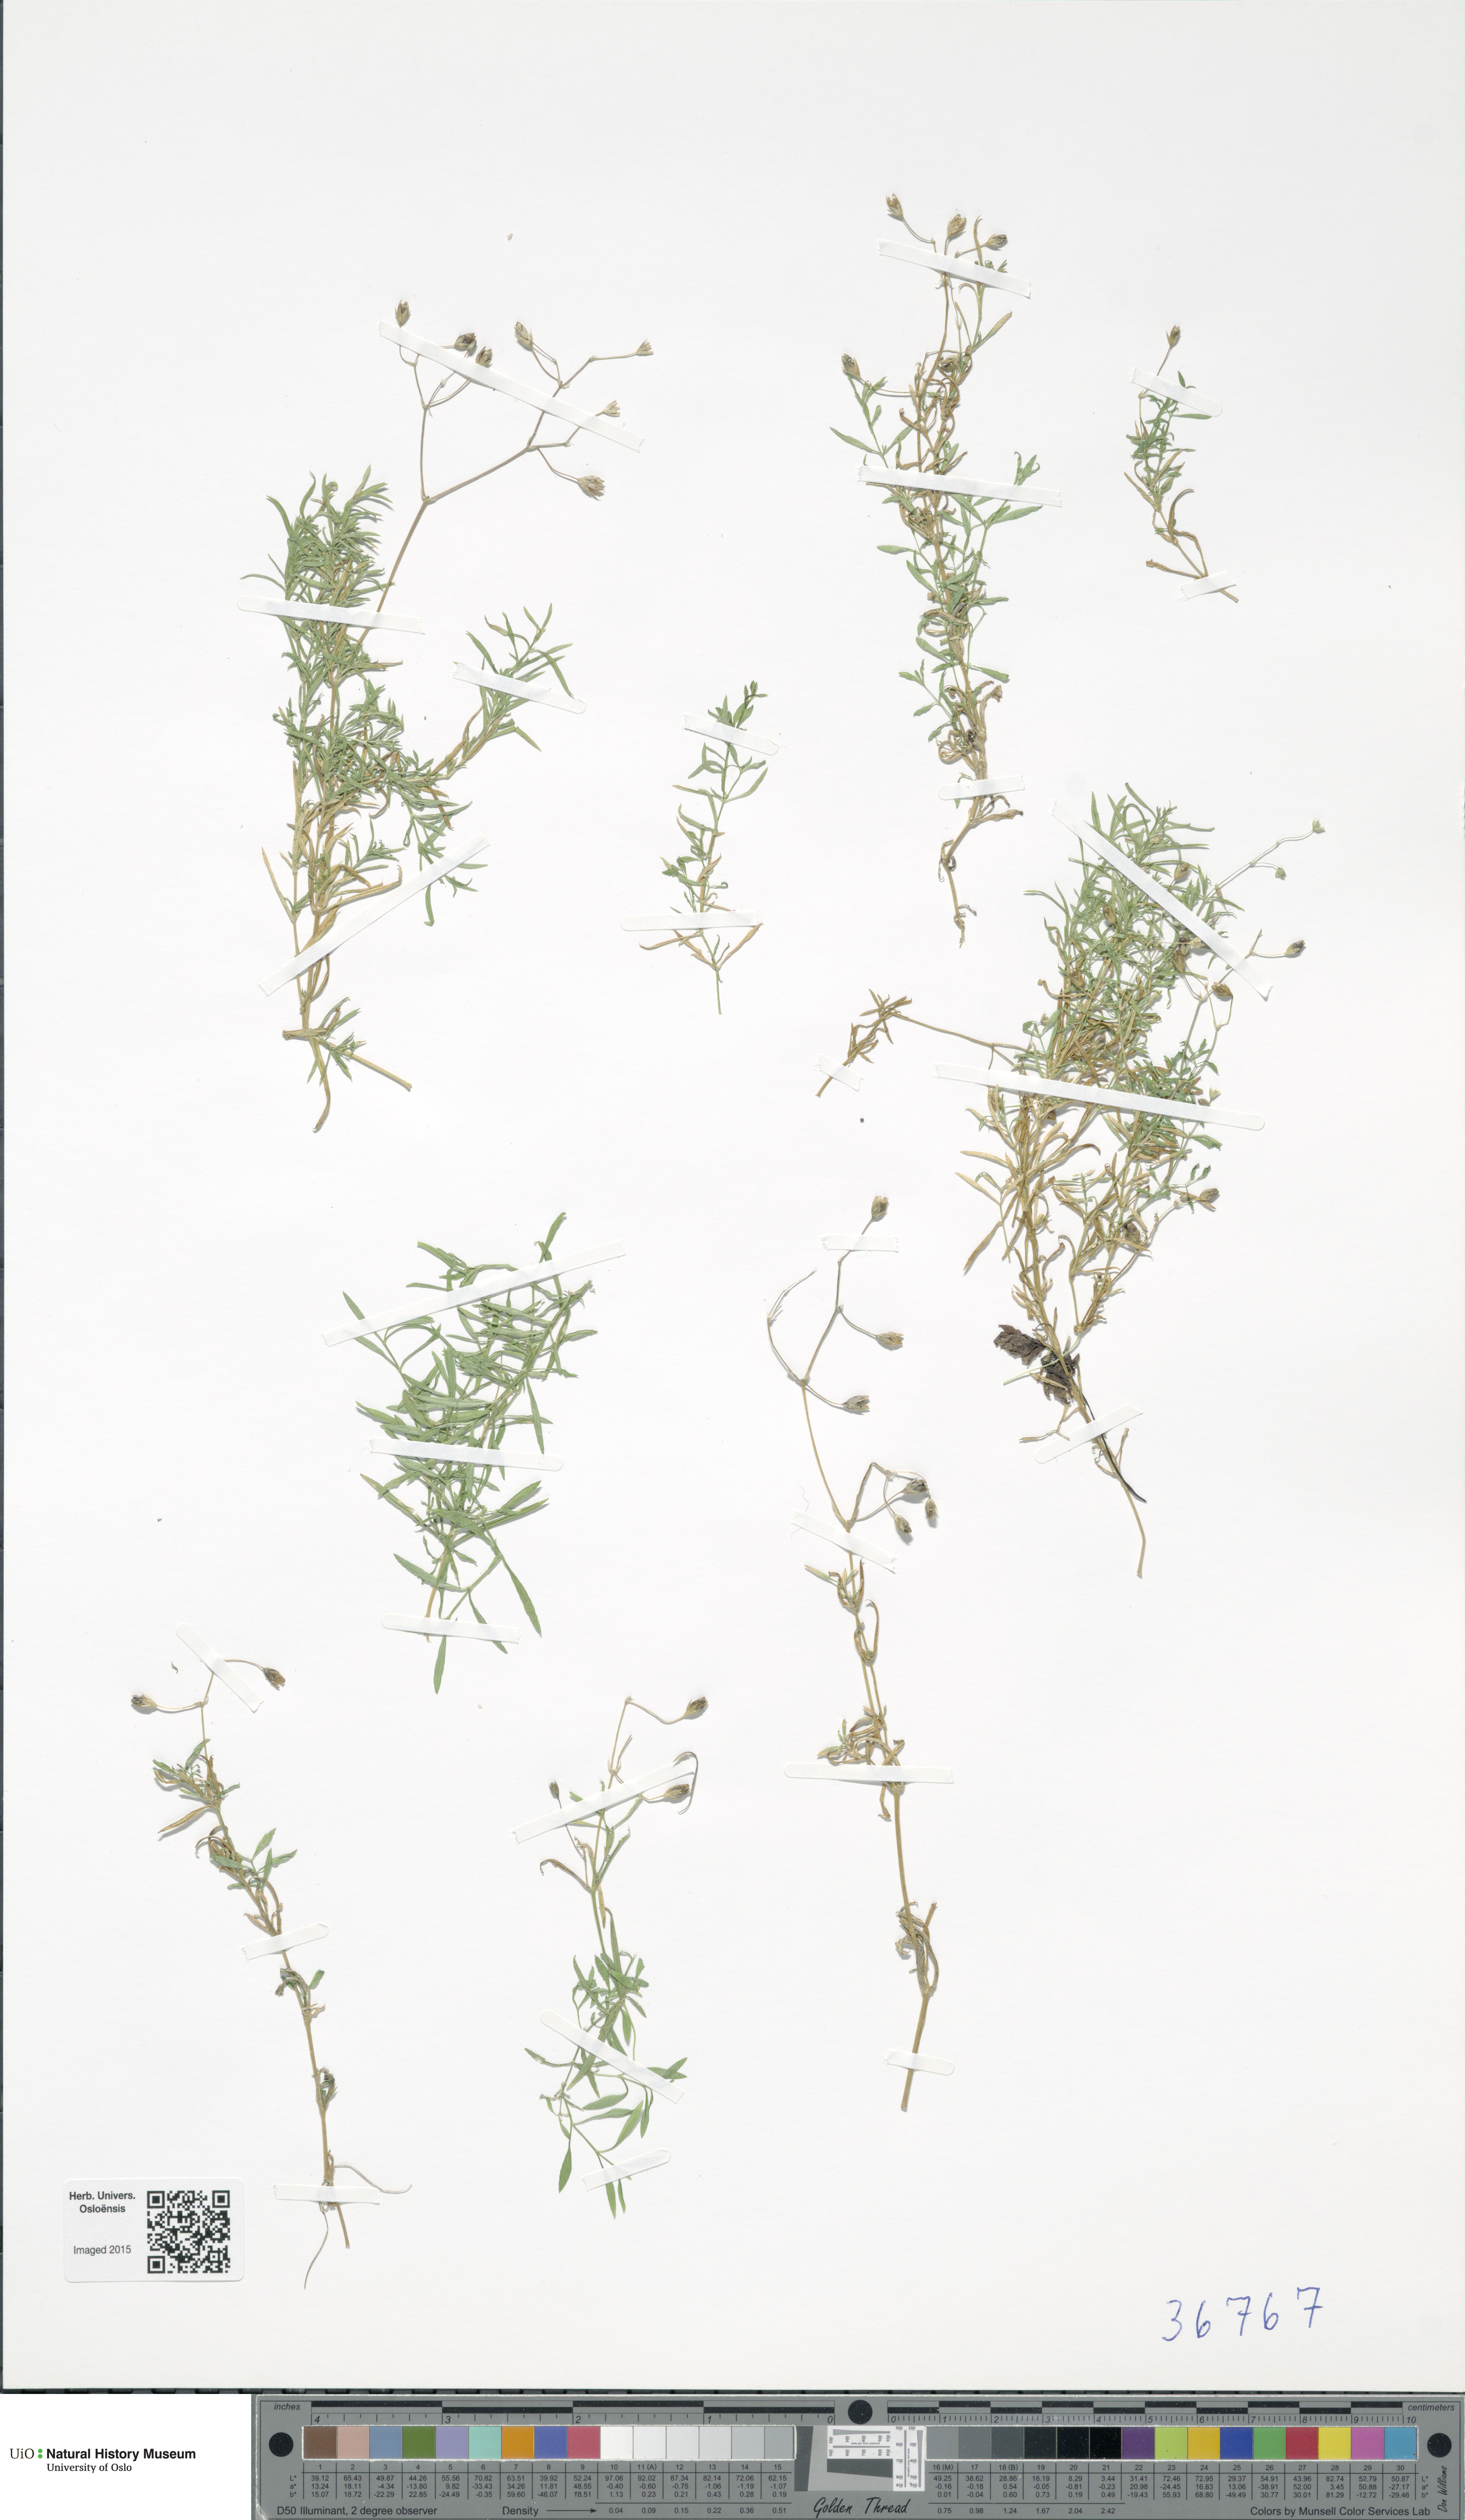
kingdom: Plantae
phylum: Tracheophyta
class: Magnoliopsida
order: Caryophyllales
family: Caryophyllaceae
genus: Stellaria
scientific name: Stellaria longifolia
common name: Long-leaved chickweed
